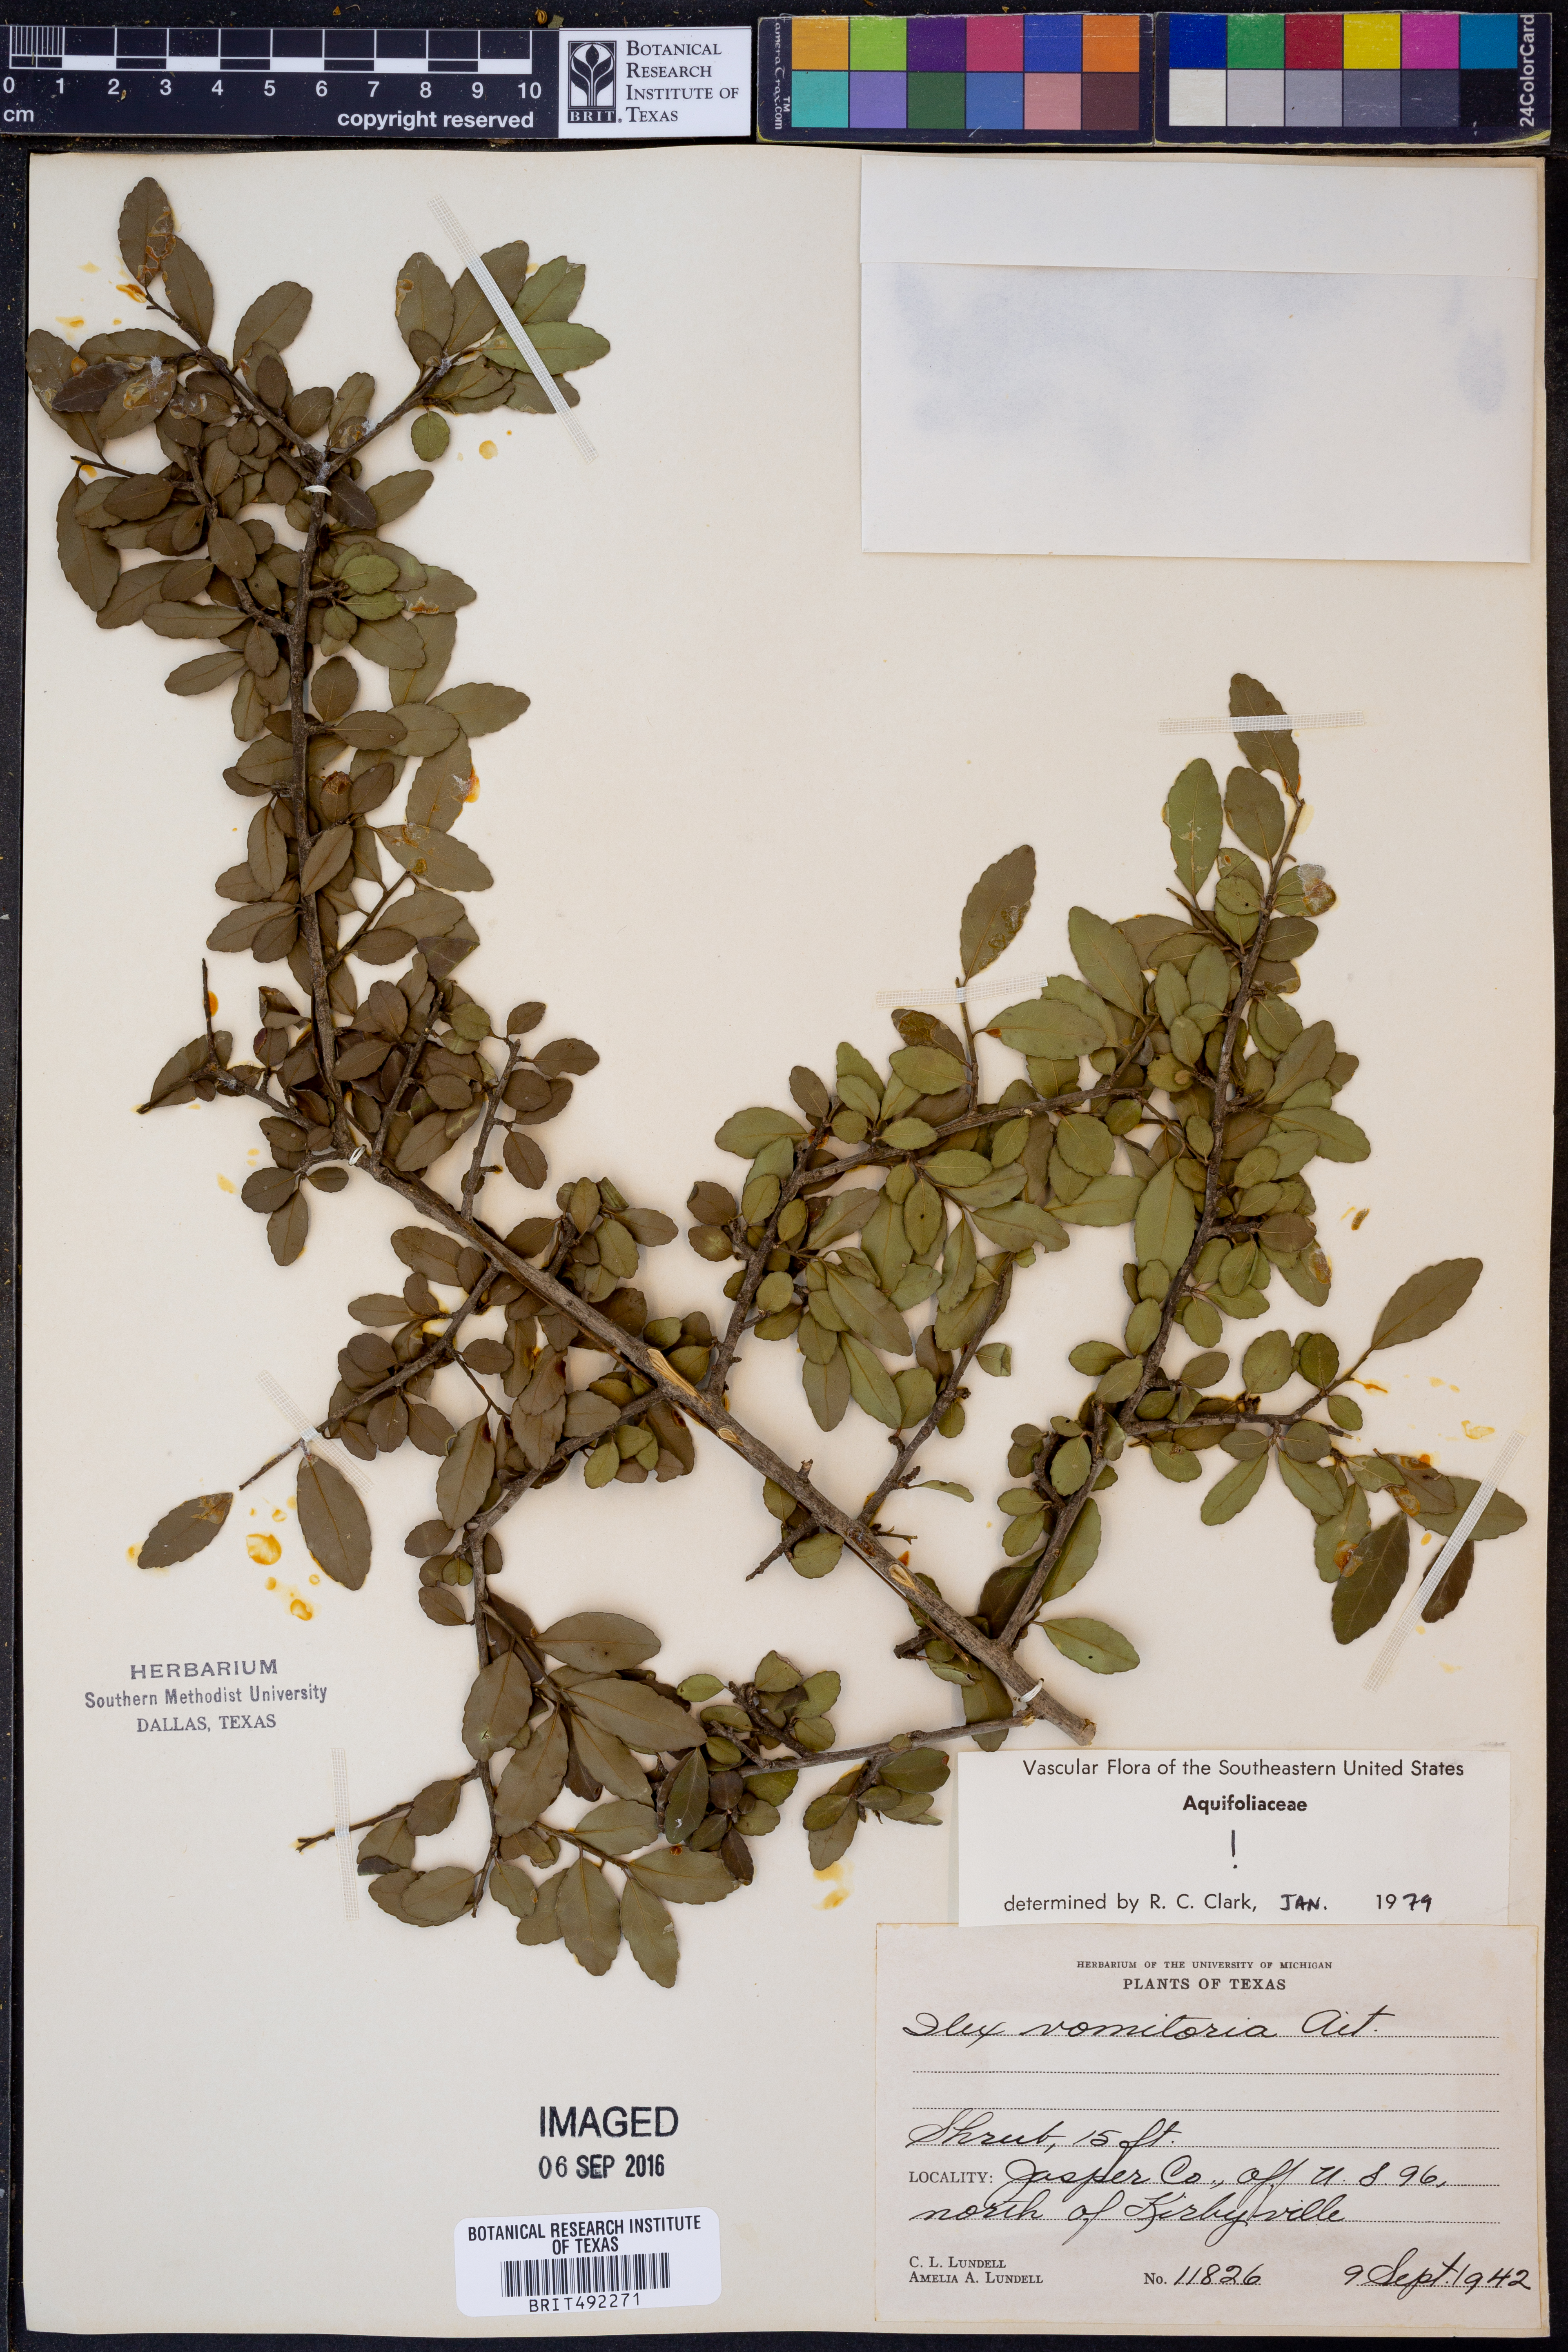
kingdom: Plantae
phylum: Tracheophyta
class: Magnoliopsida
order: Aquifoliales
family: Aquifoliaceae
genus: Ilex
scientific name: Ilex vomitoria
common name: Yaupon holly
